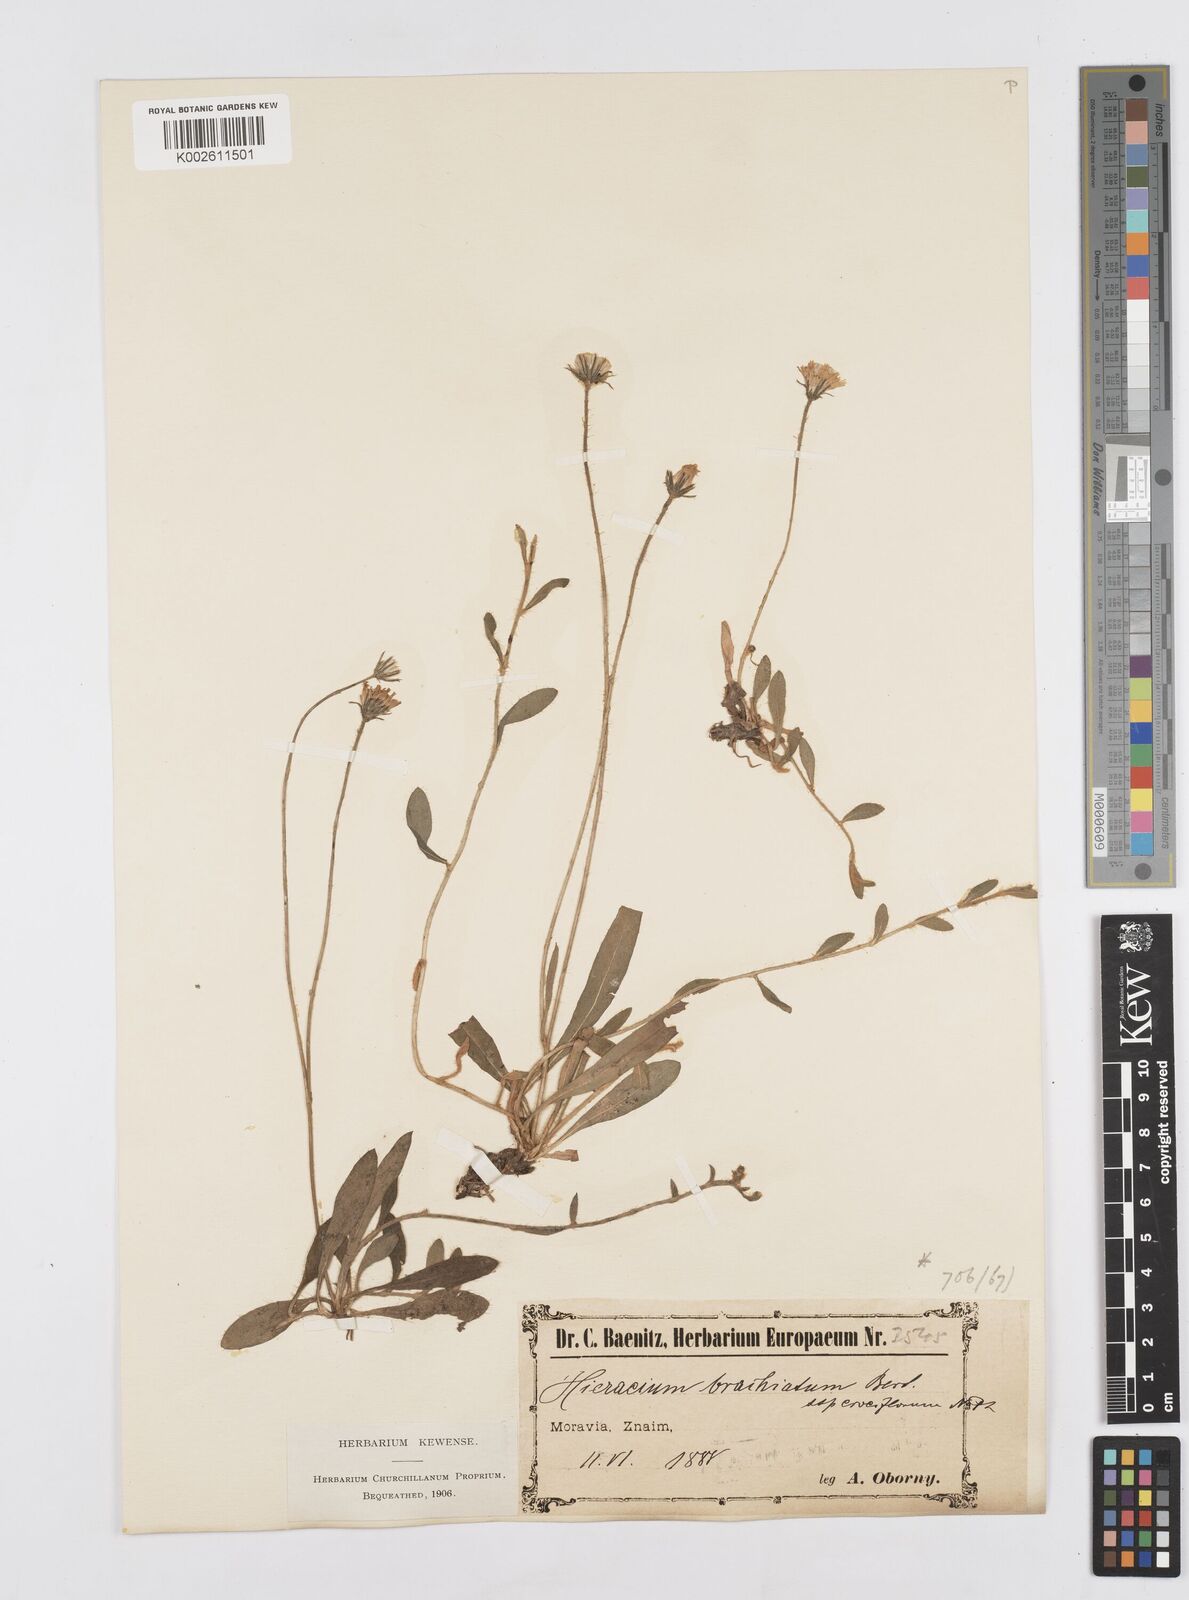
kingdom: Plantae
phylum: Tracheophyta
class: Magnoliopsida
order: Asterales
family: Asteraceae
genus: Pilosella
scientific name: Pilosella acutifolia
